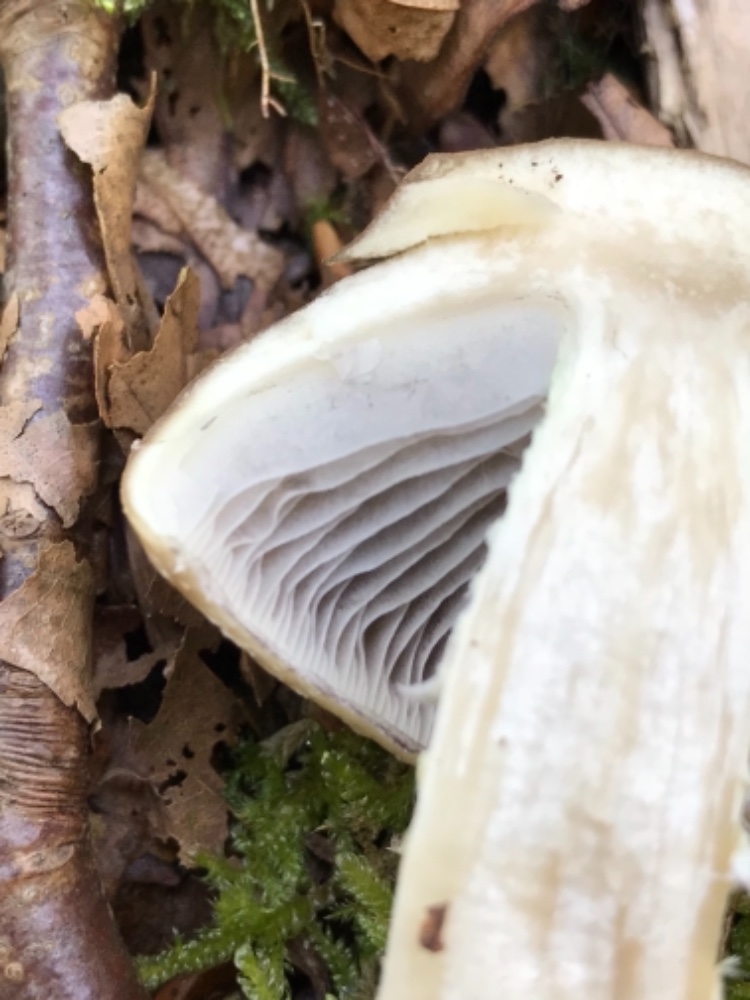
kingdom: Fungi
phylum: Basidiomycota
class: Agaricomycetes
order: Agaricales
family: Strophariaceae
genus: Stropharia
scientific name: Stropharia hornemannii
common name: nordisk bredblad
